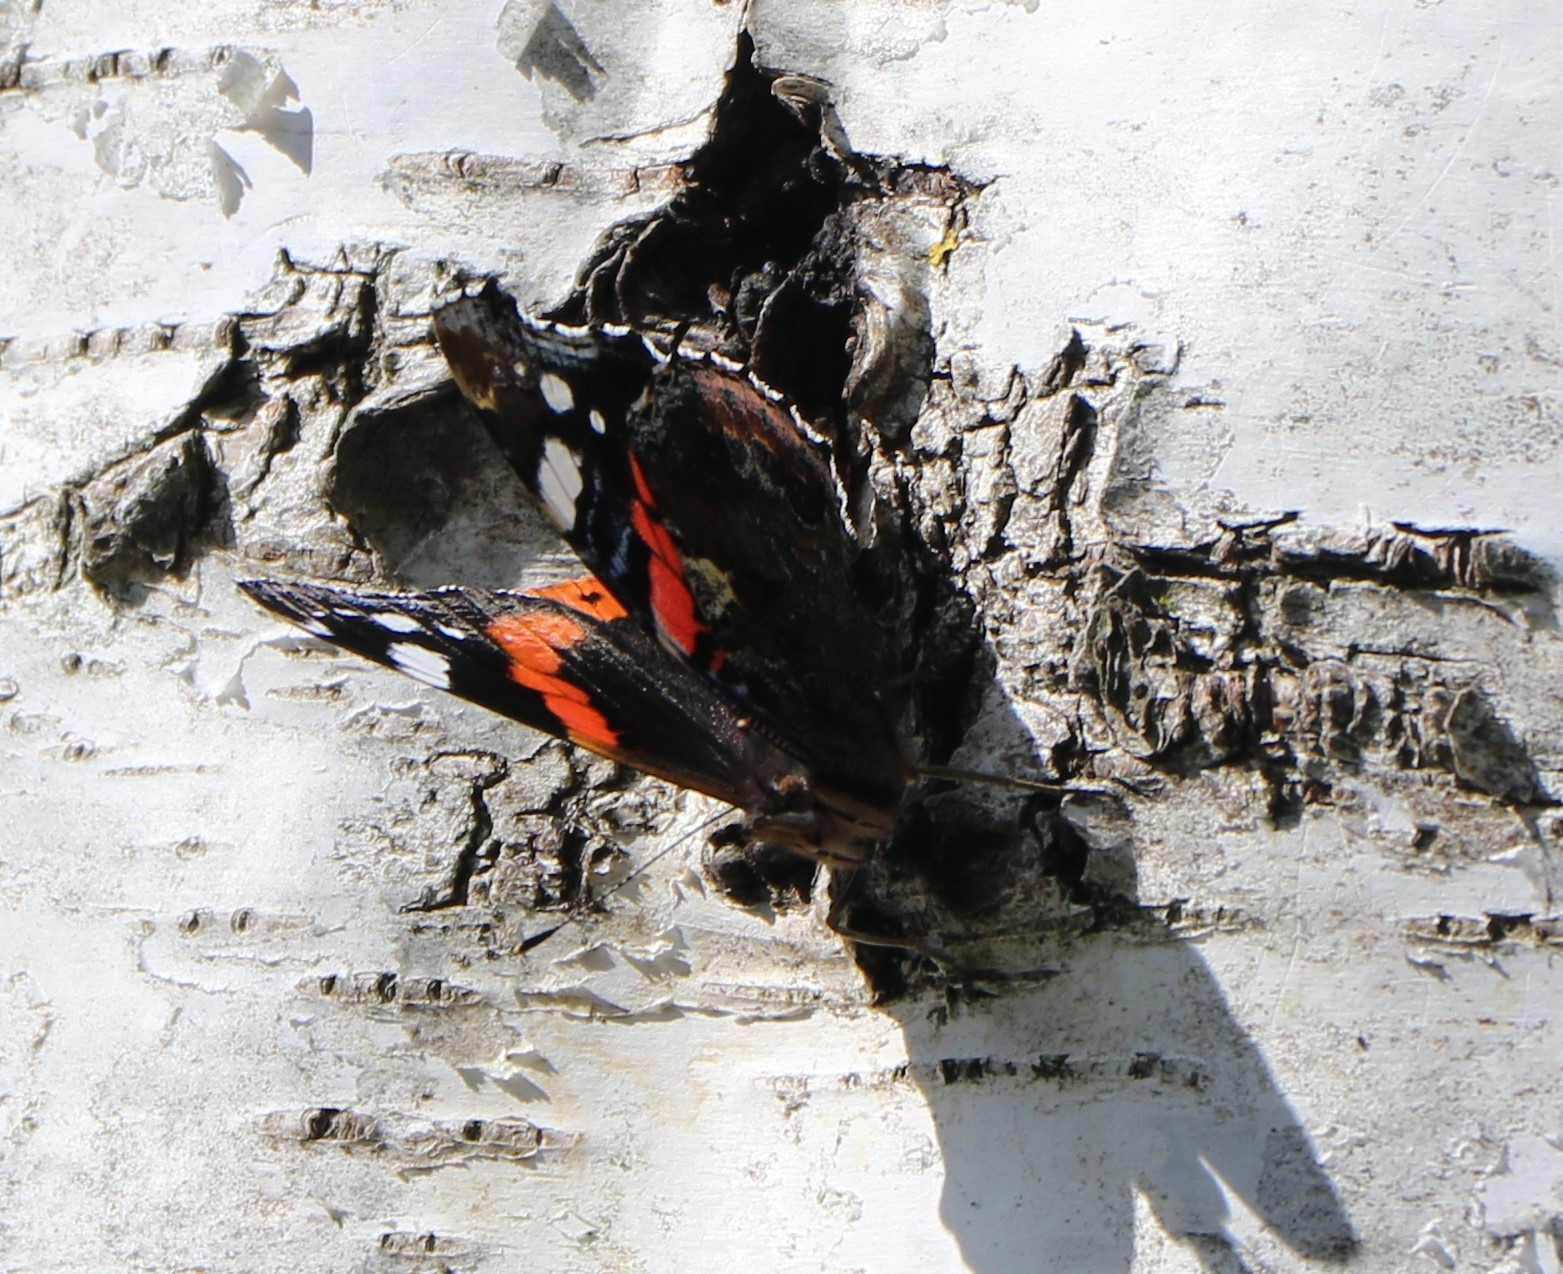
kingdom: Animalia
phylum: Arthropoda
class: Insecta
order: Lepidoptera
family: Nymphalidae
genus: Vanessa
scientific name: Vanessa atalanta
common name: Admiral
